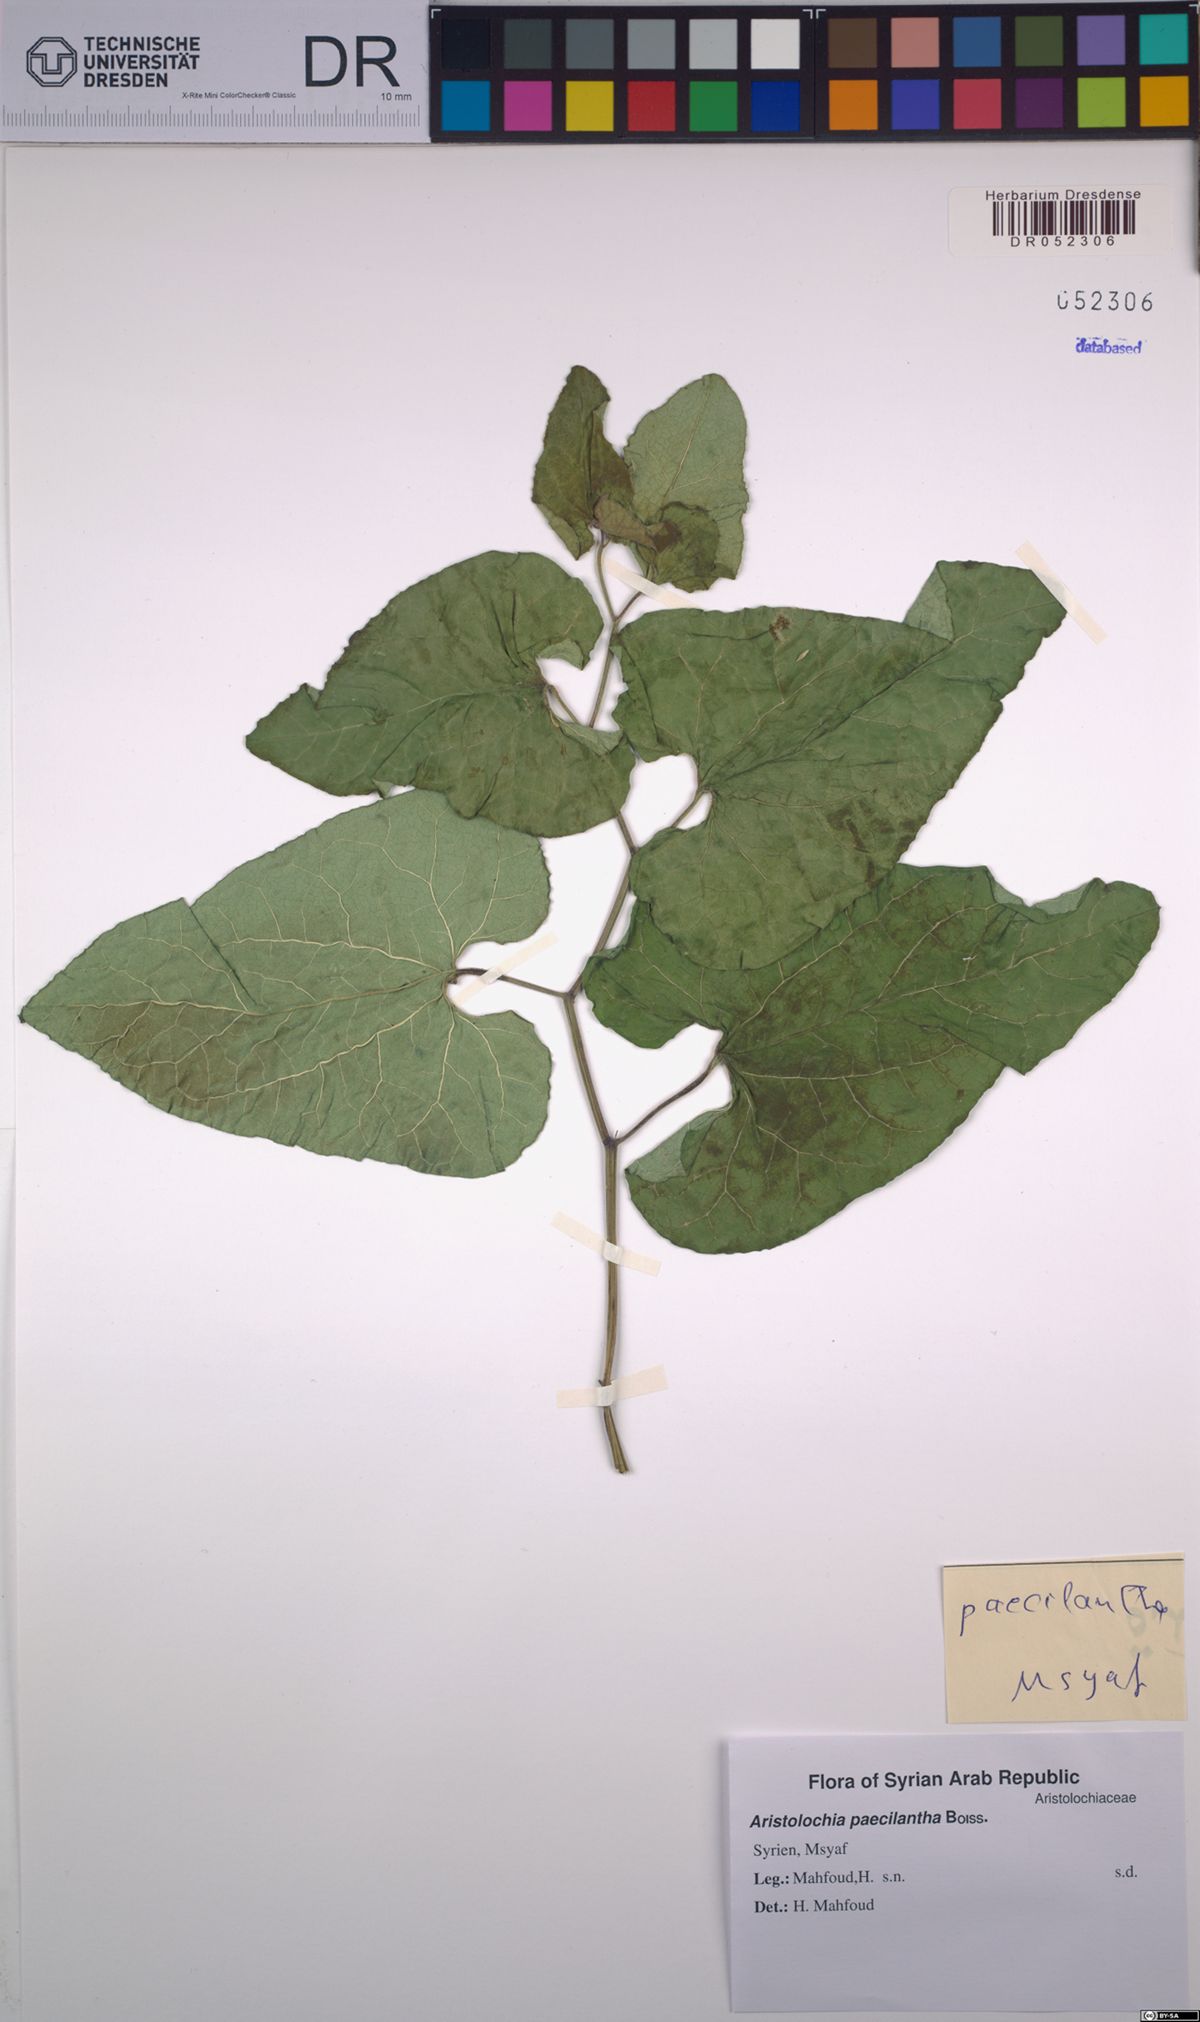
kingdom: Plantae
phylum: Tracheophyta
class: Magnoliopsida
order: Piperales
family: Aristolochiaceae
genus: Aristolochia
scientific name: Aristolochia paecilantha
